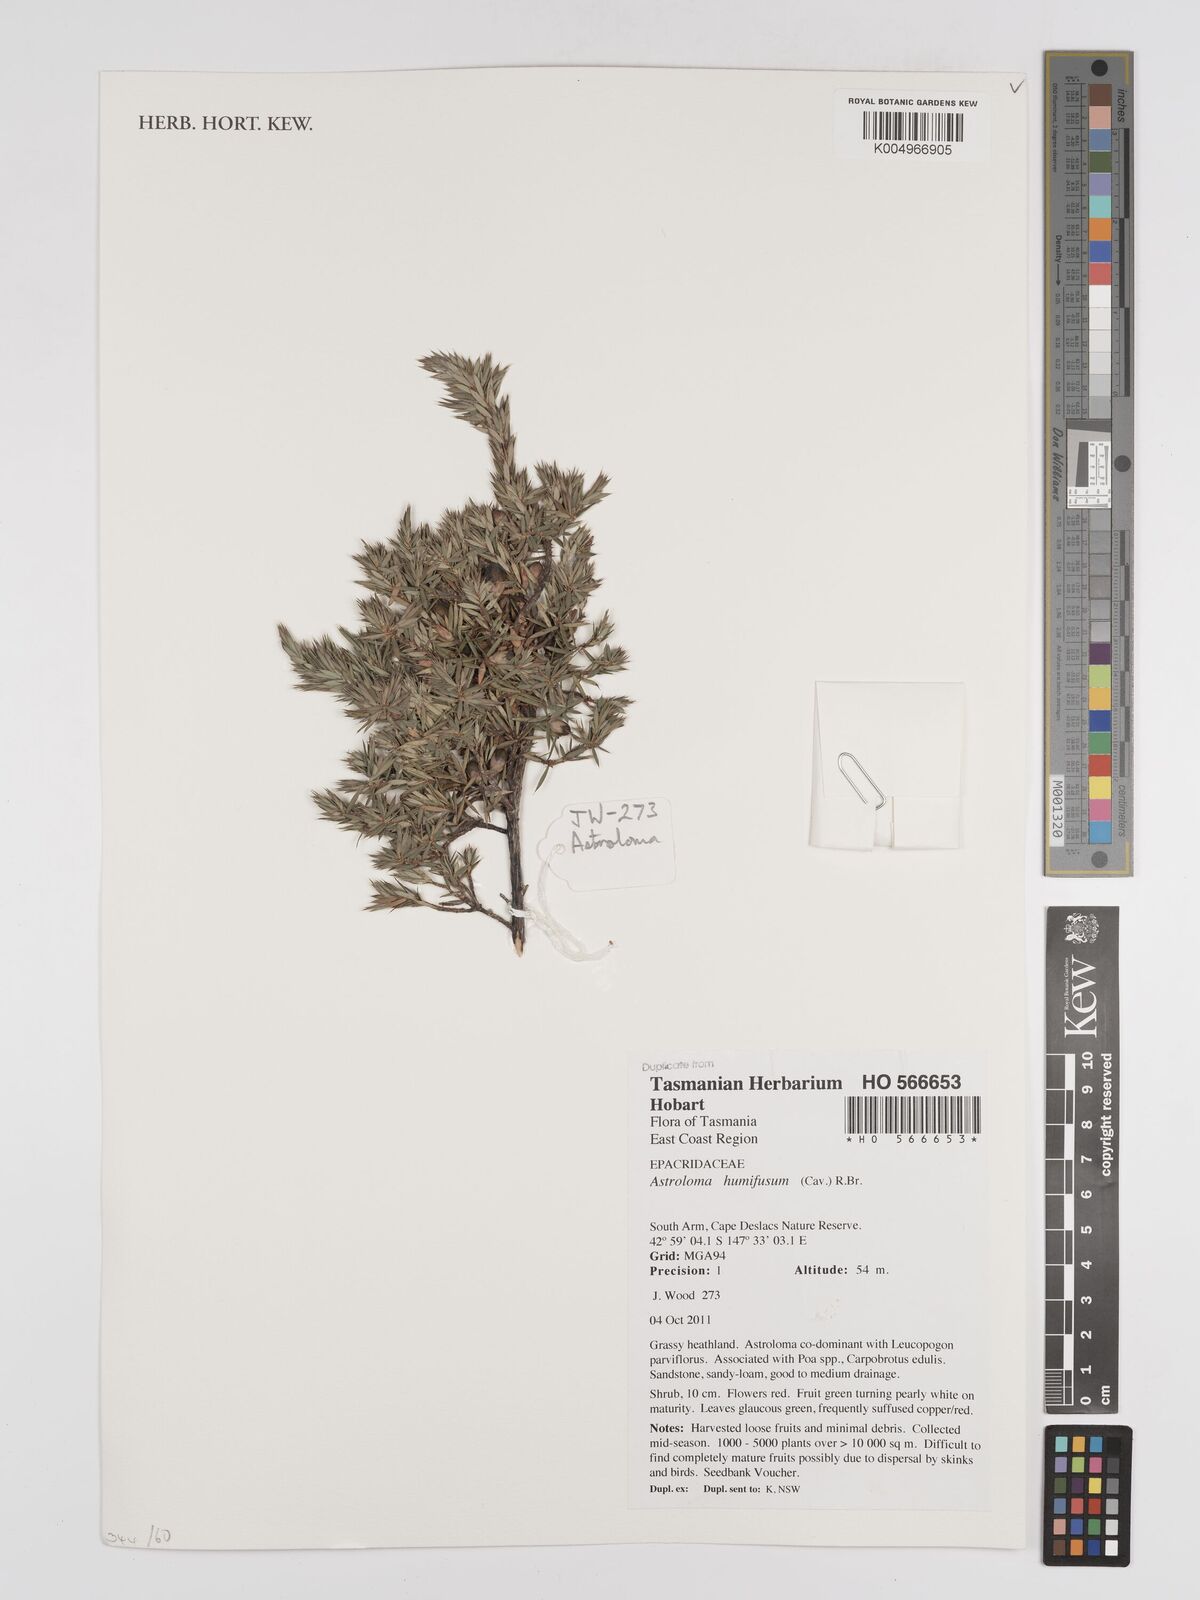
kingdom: Plantae
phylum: Tracheophyta
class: Magnoliopsida
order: Ericales
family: Ericaceae
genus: Styphelia
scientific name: Styphelia humifusa
